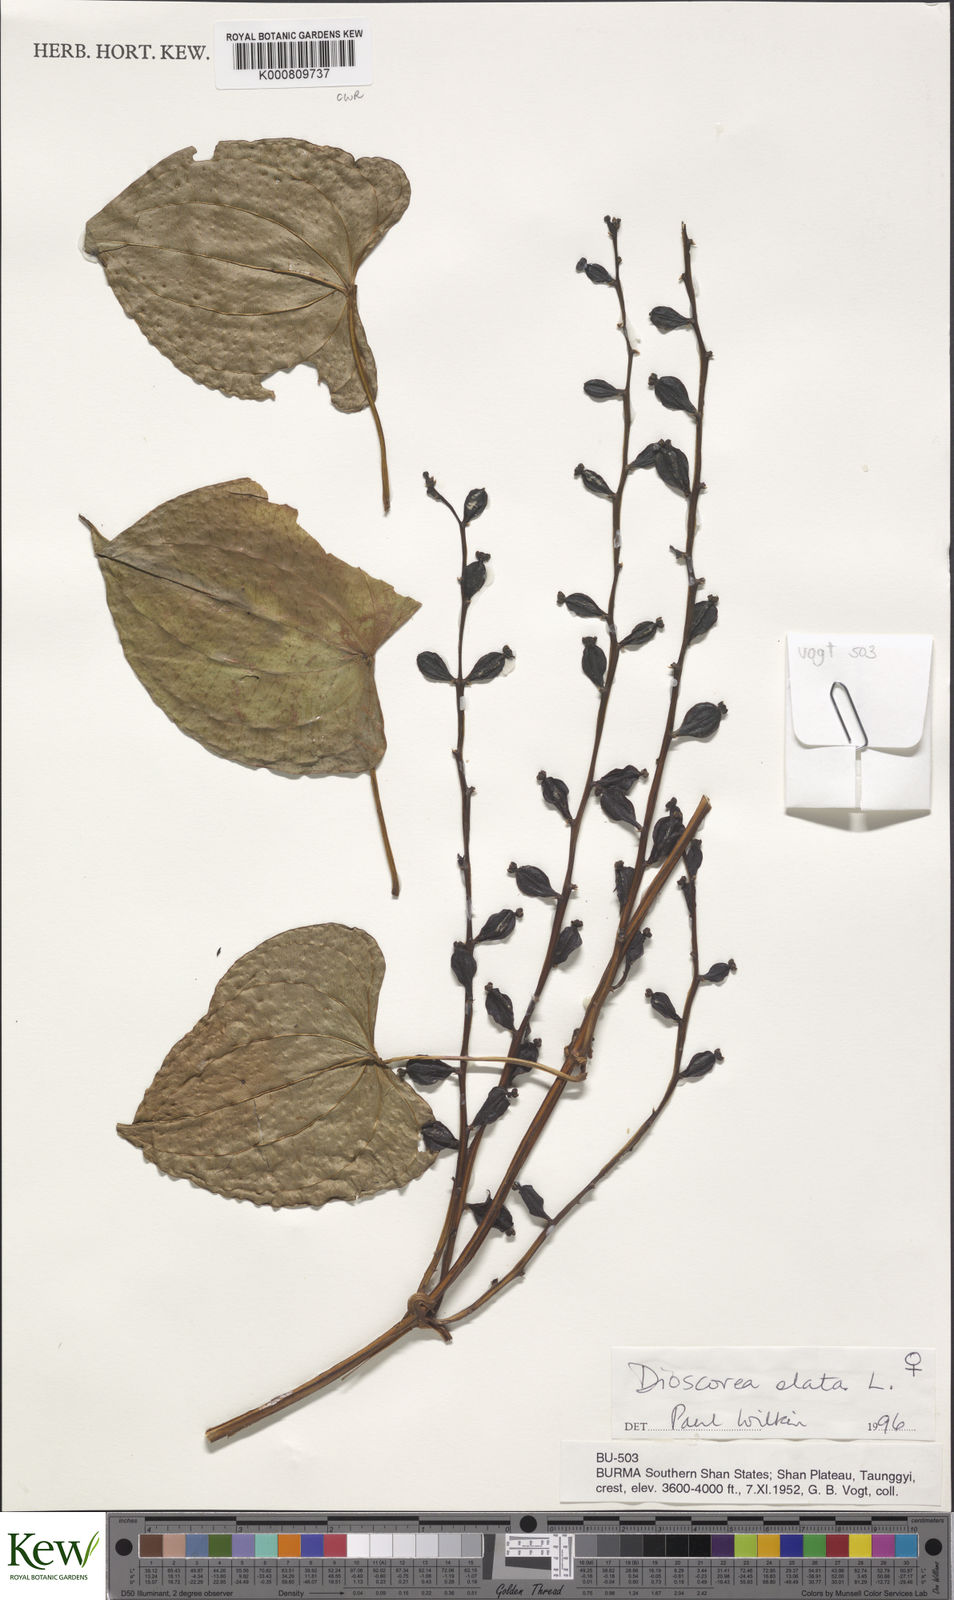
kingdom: Plantae
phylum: Tracheophyta
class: Liliopsida
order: Dioscoreales
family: Dioscoreaceae
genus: Dioscorea
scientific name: Dioscorea alata
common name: Water yam
